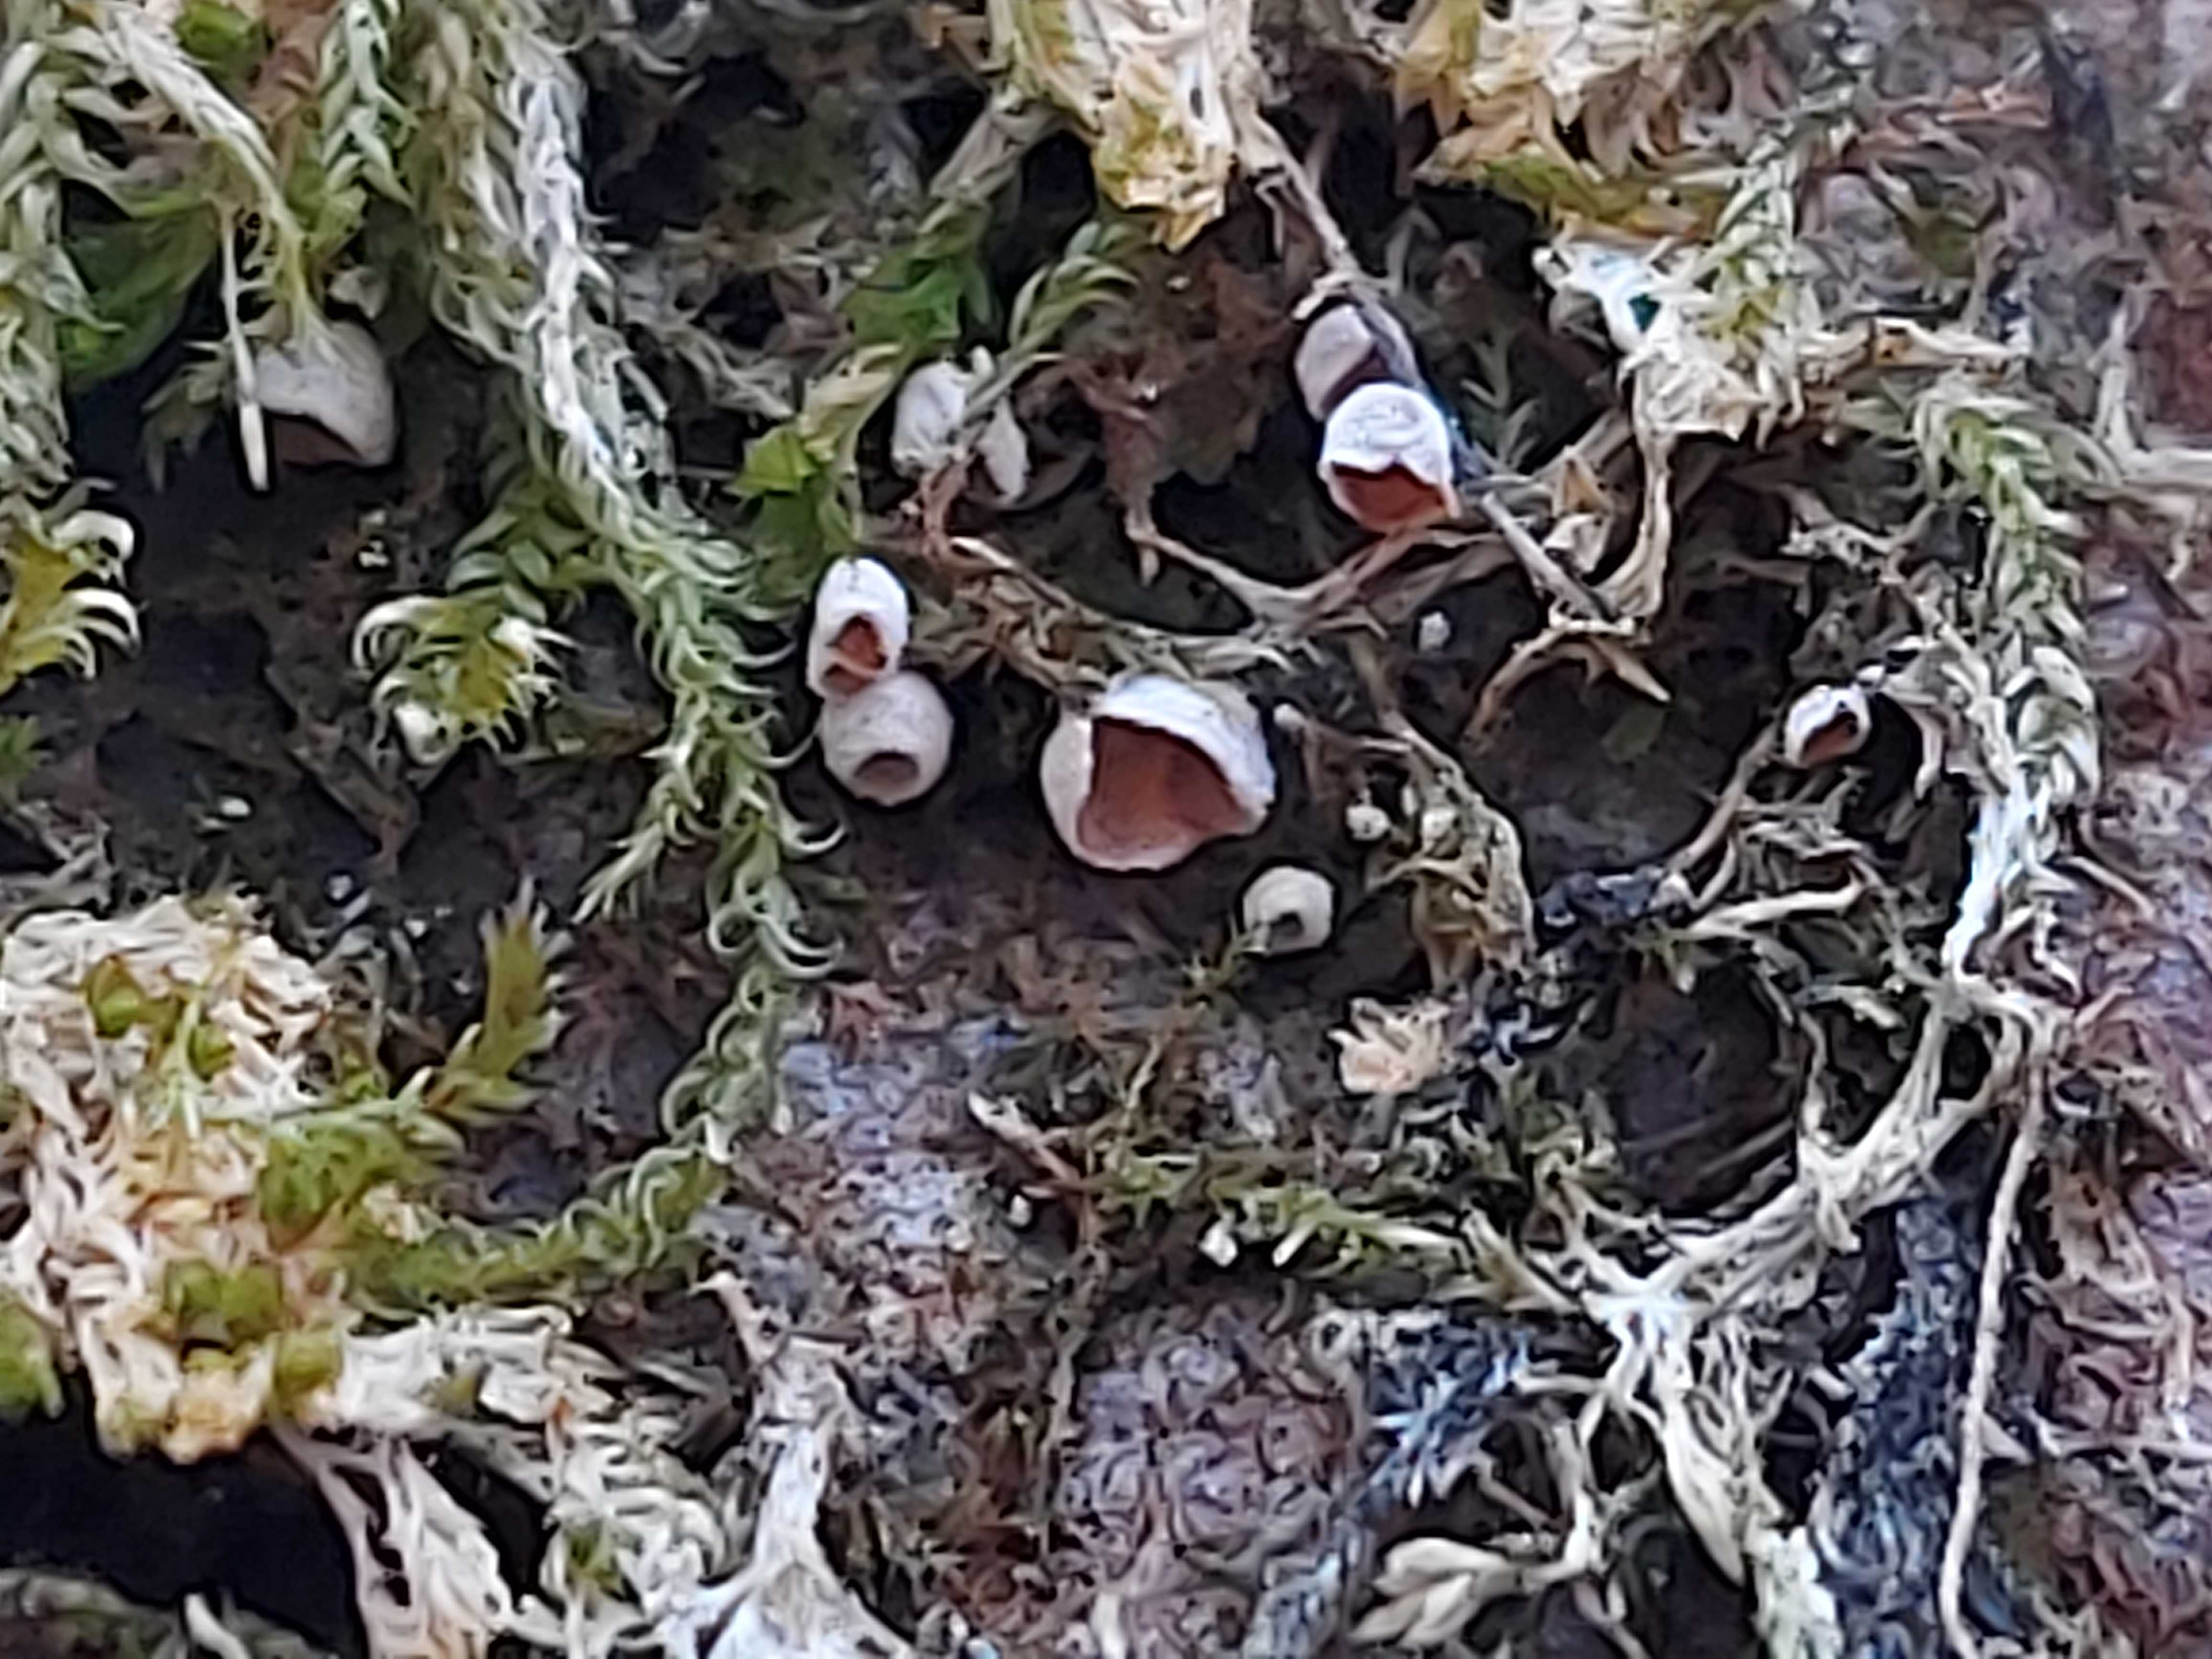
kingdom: Fungi
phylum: Basidiomycota
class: Agaricomycetes
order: Agaricales
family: Chromocyphellaceae
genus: Chromocyphella
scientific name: Chromocyphella muscicola
